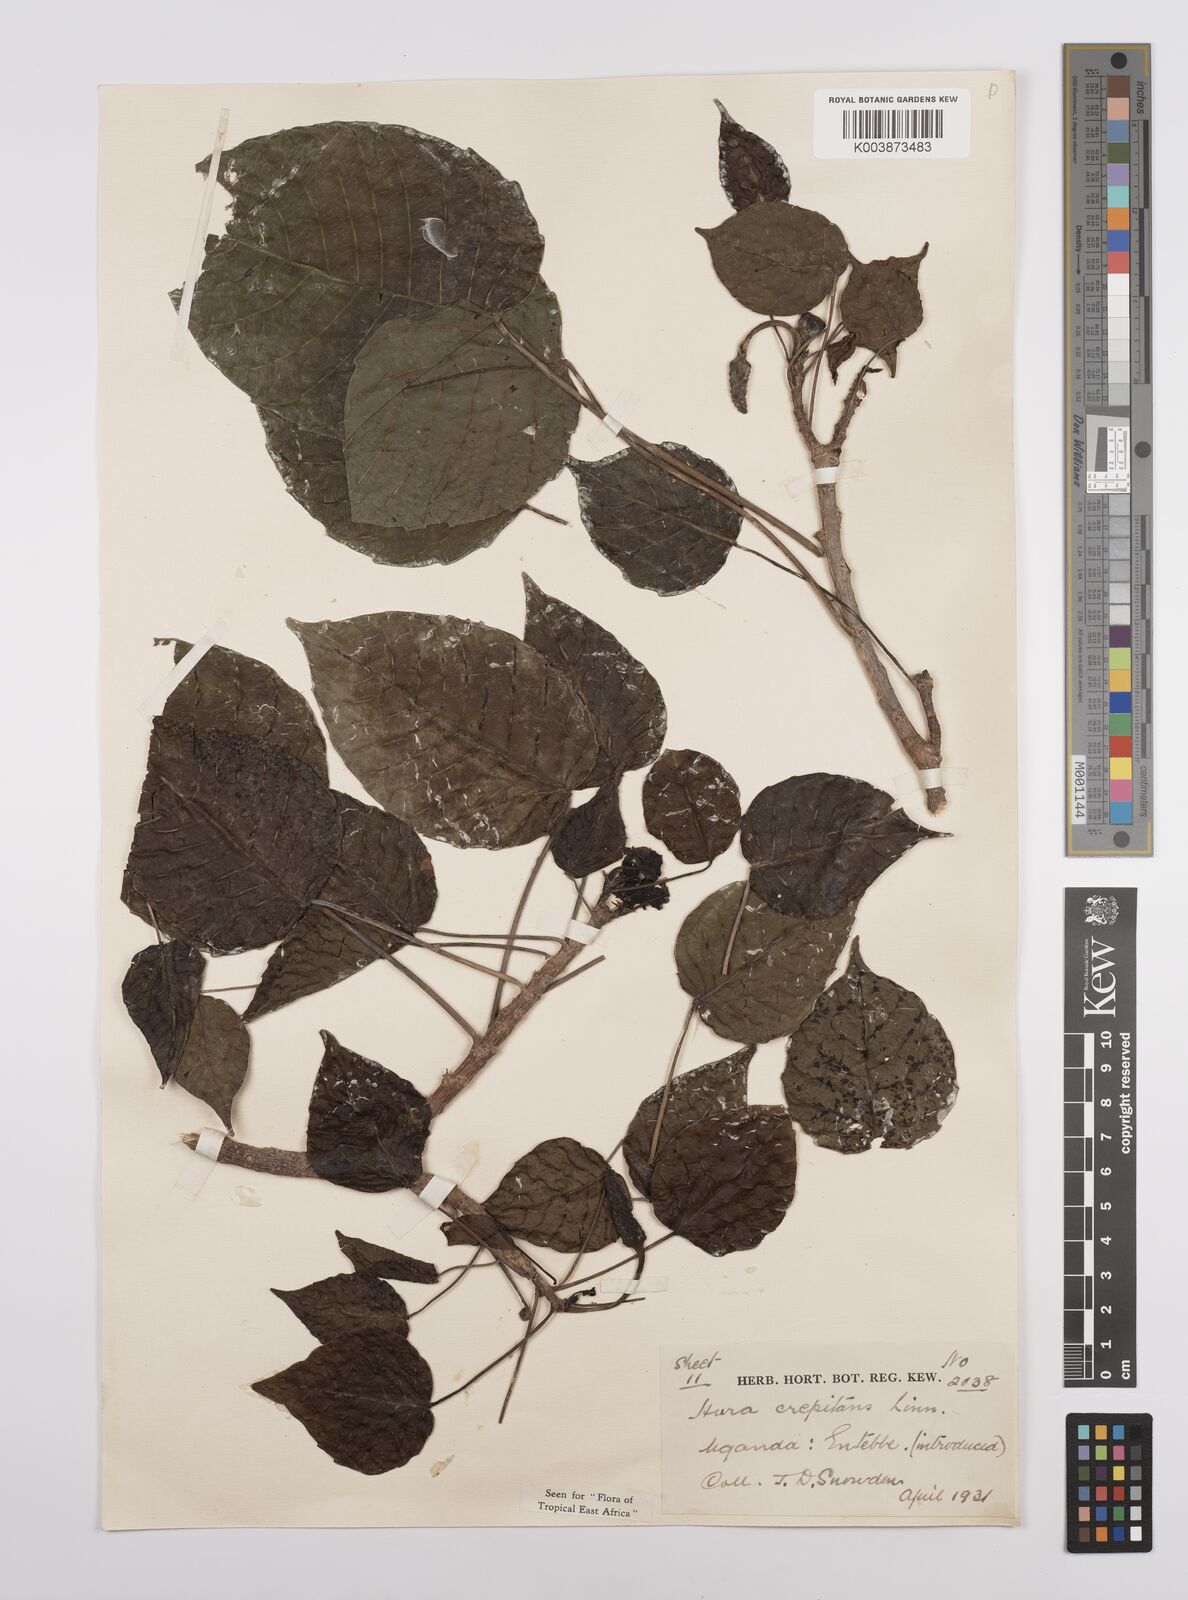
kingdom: Plantae
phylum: Tracheophyta
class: Magnoliopsida
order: Malpighiales
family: Euphorbiaceae
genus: Hura
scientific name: Hura crepitans
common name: Sandboxtree
